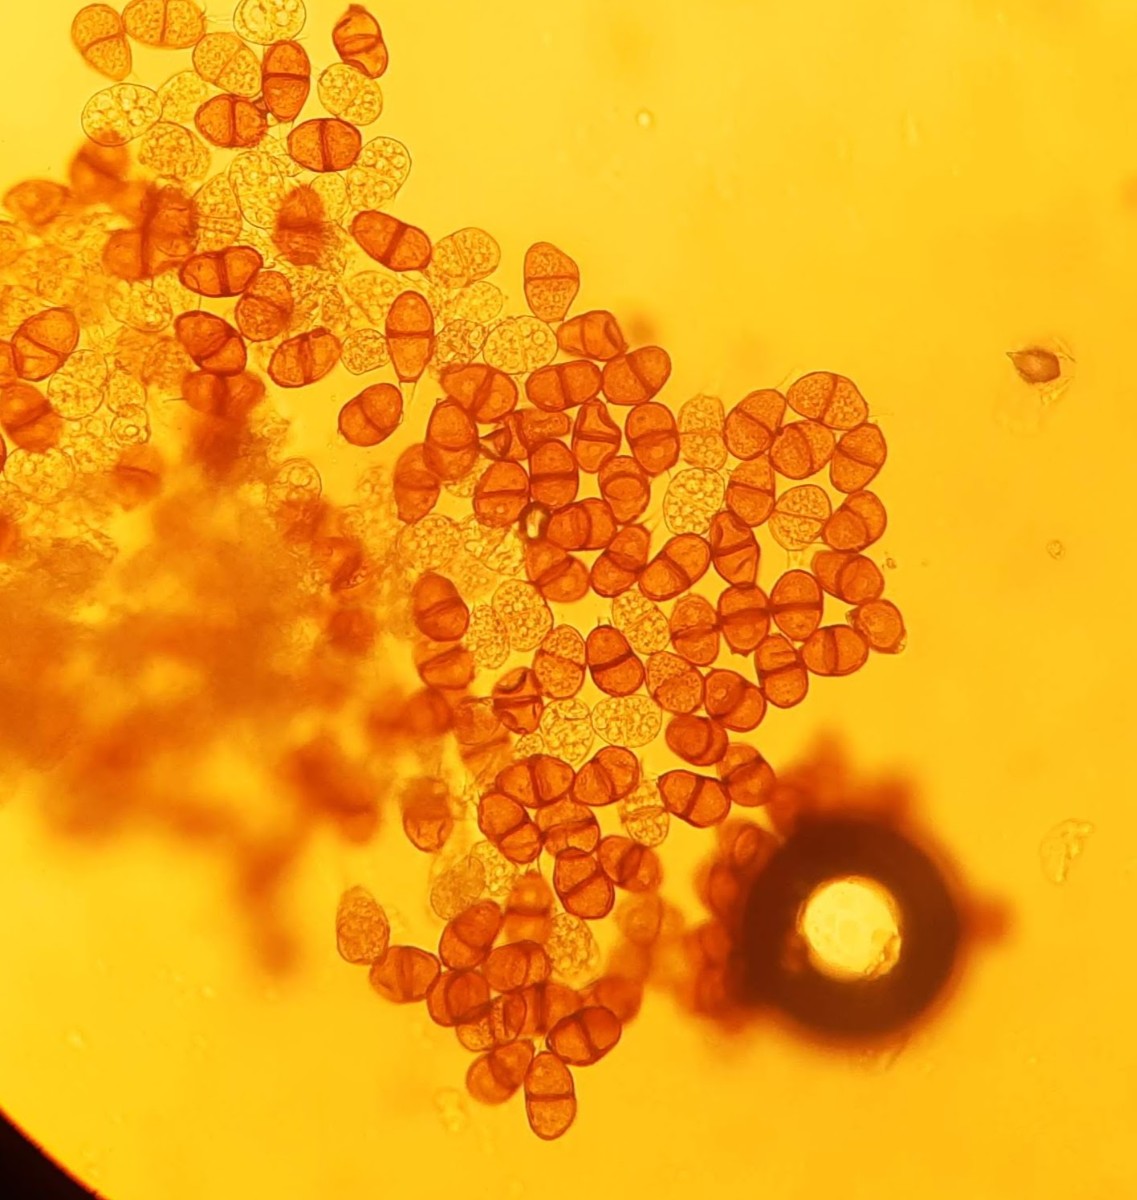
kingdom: Fungi
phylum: Basidiomycota
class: Pucciniomycetes
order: Pucciniales
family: Pucciniaceae
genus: Puccinia
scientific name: Puccinia hieracii
